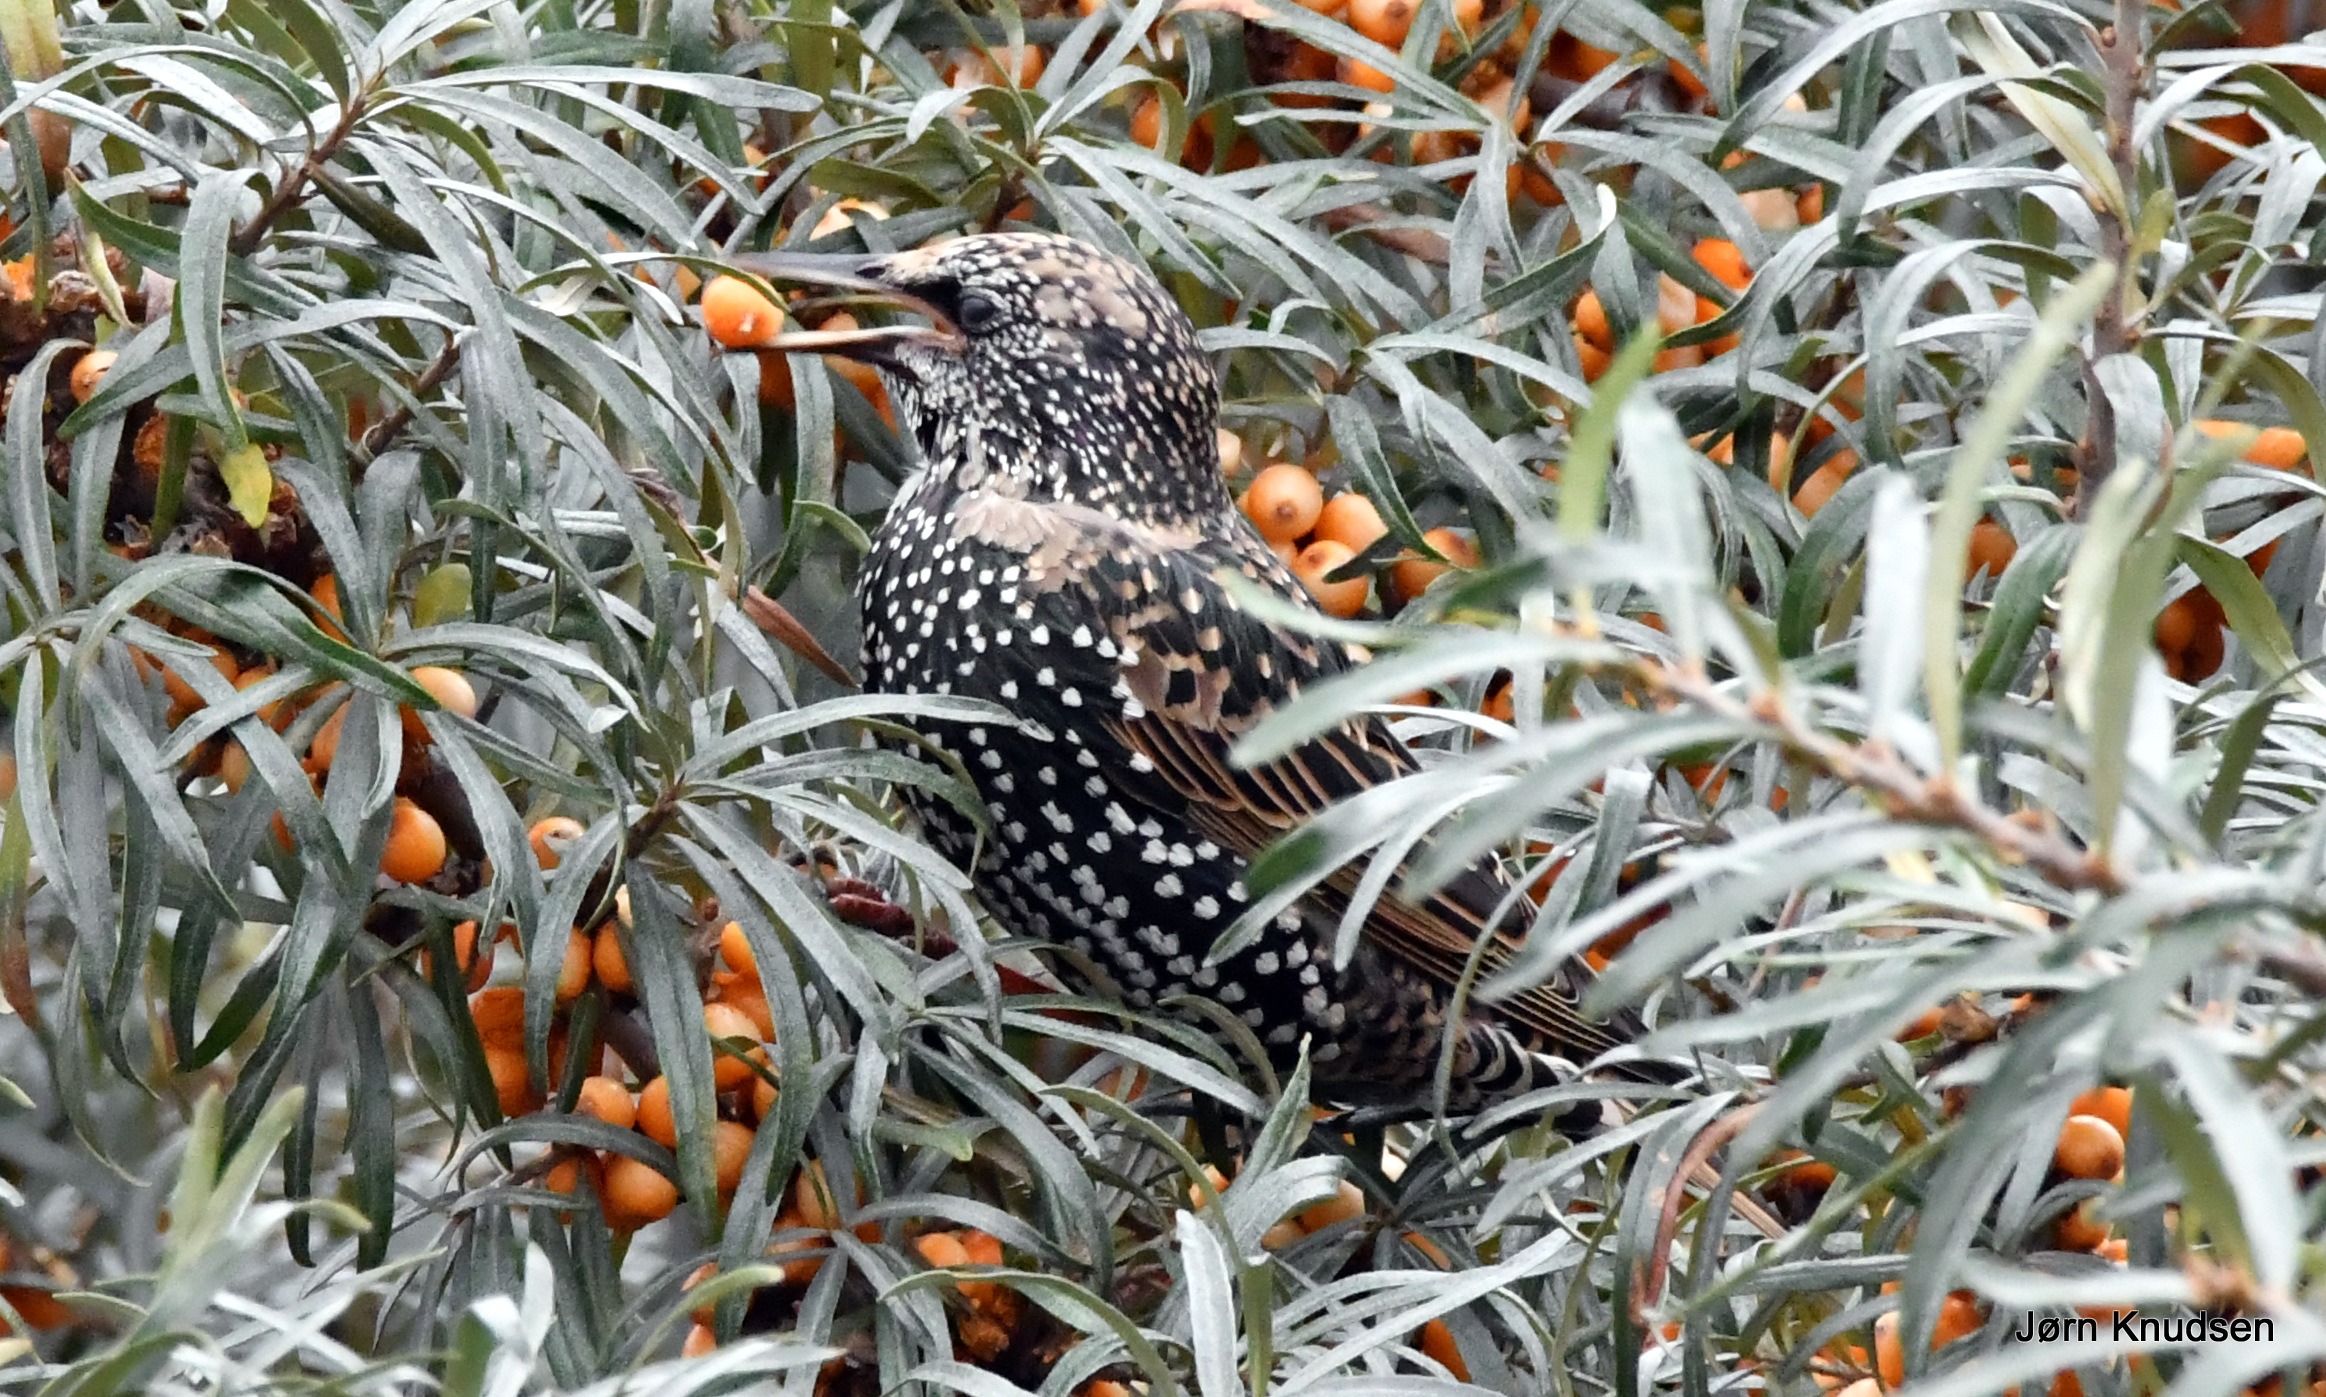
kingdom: Animalia
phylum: Chordata
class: Aves
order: Passeriformes
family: Sturnidae
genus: Sturnus
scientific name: Sturnus vulgaris
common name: Stær
